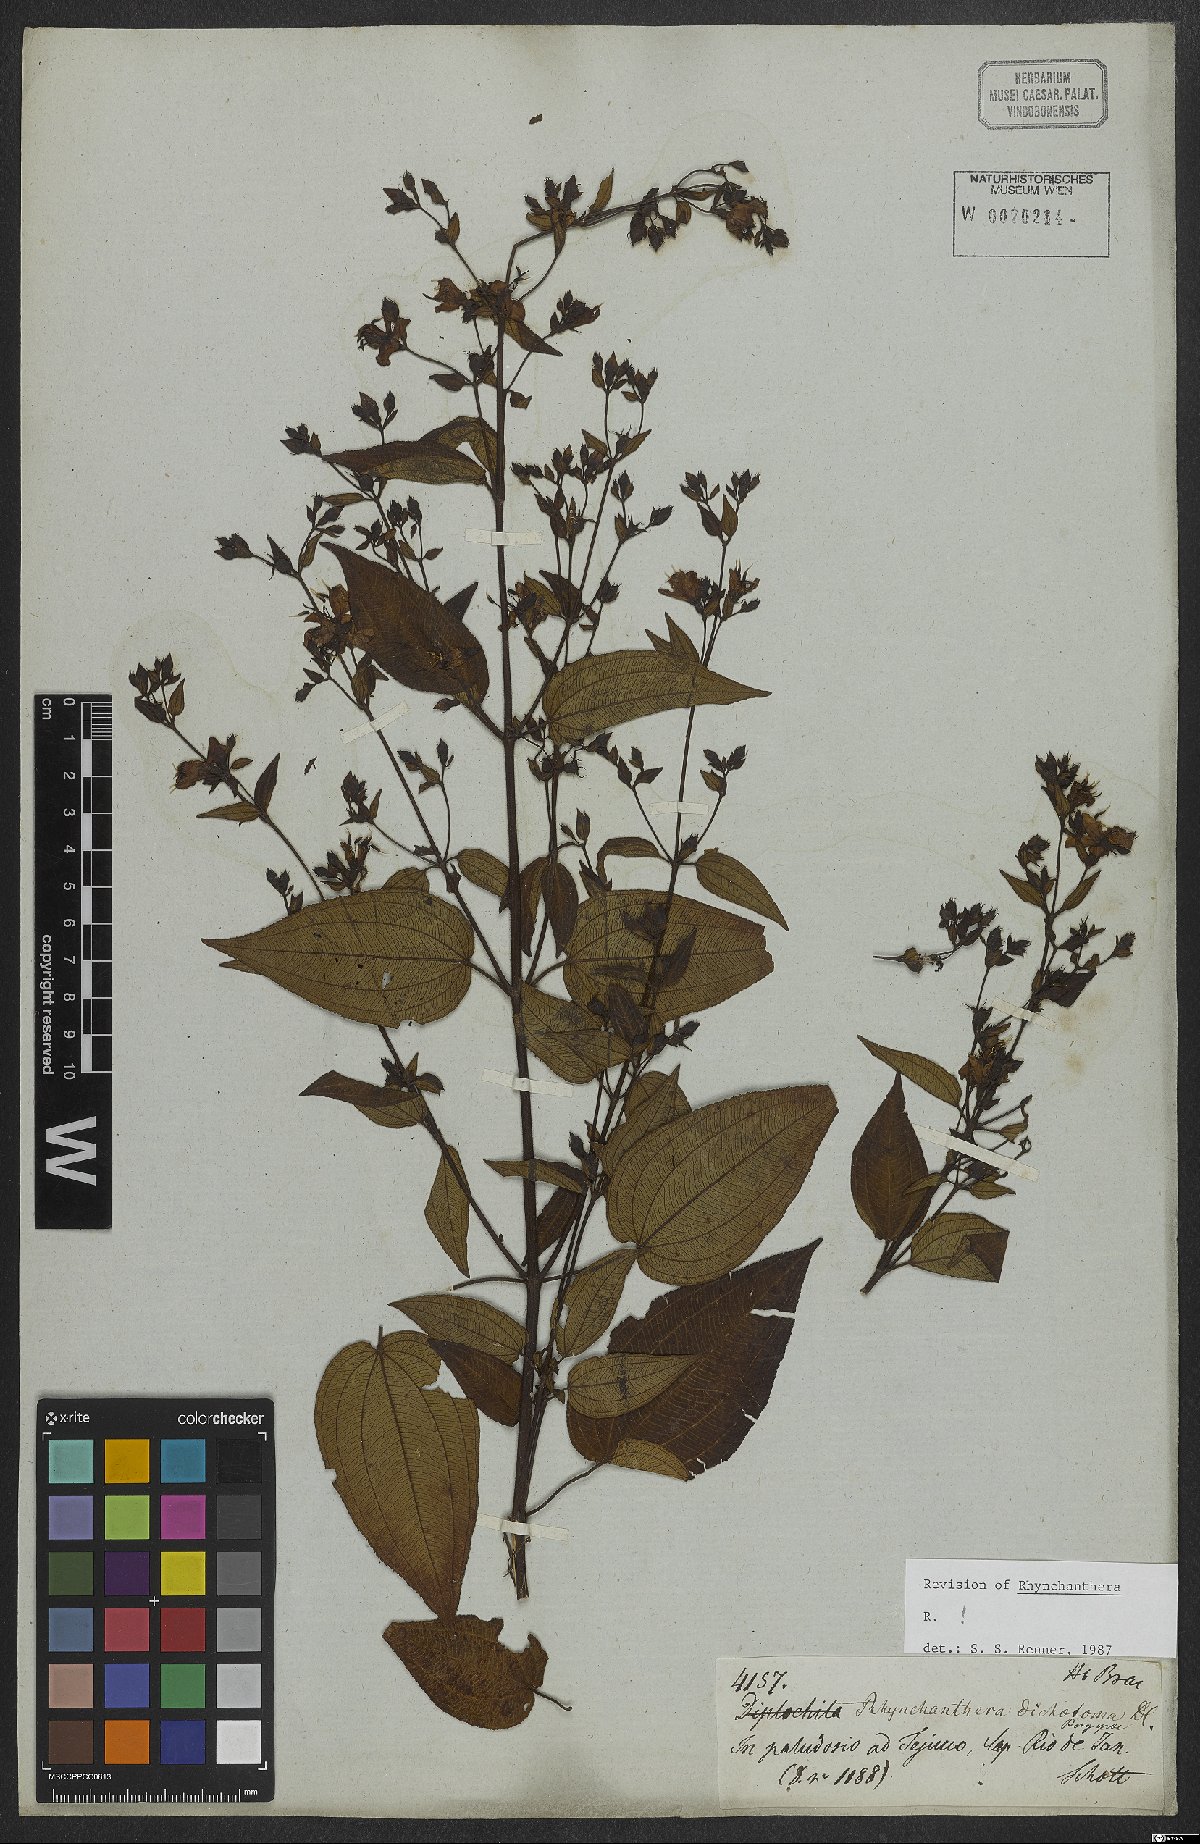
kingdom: Plantae
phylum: Tracheophyta
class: Magnoliopsida
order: Myrtales
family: Melastomataceae
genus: Rhynchanthera
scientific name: Rhynchanthera dichotoma
